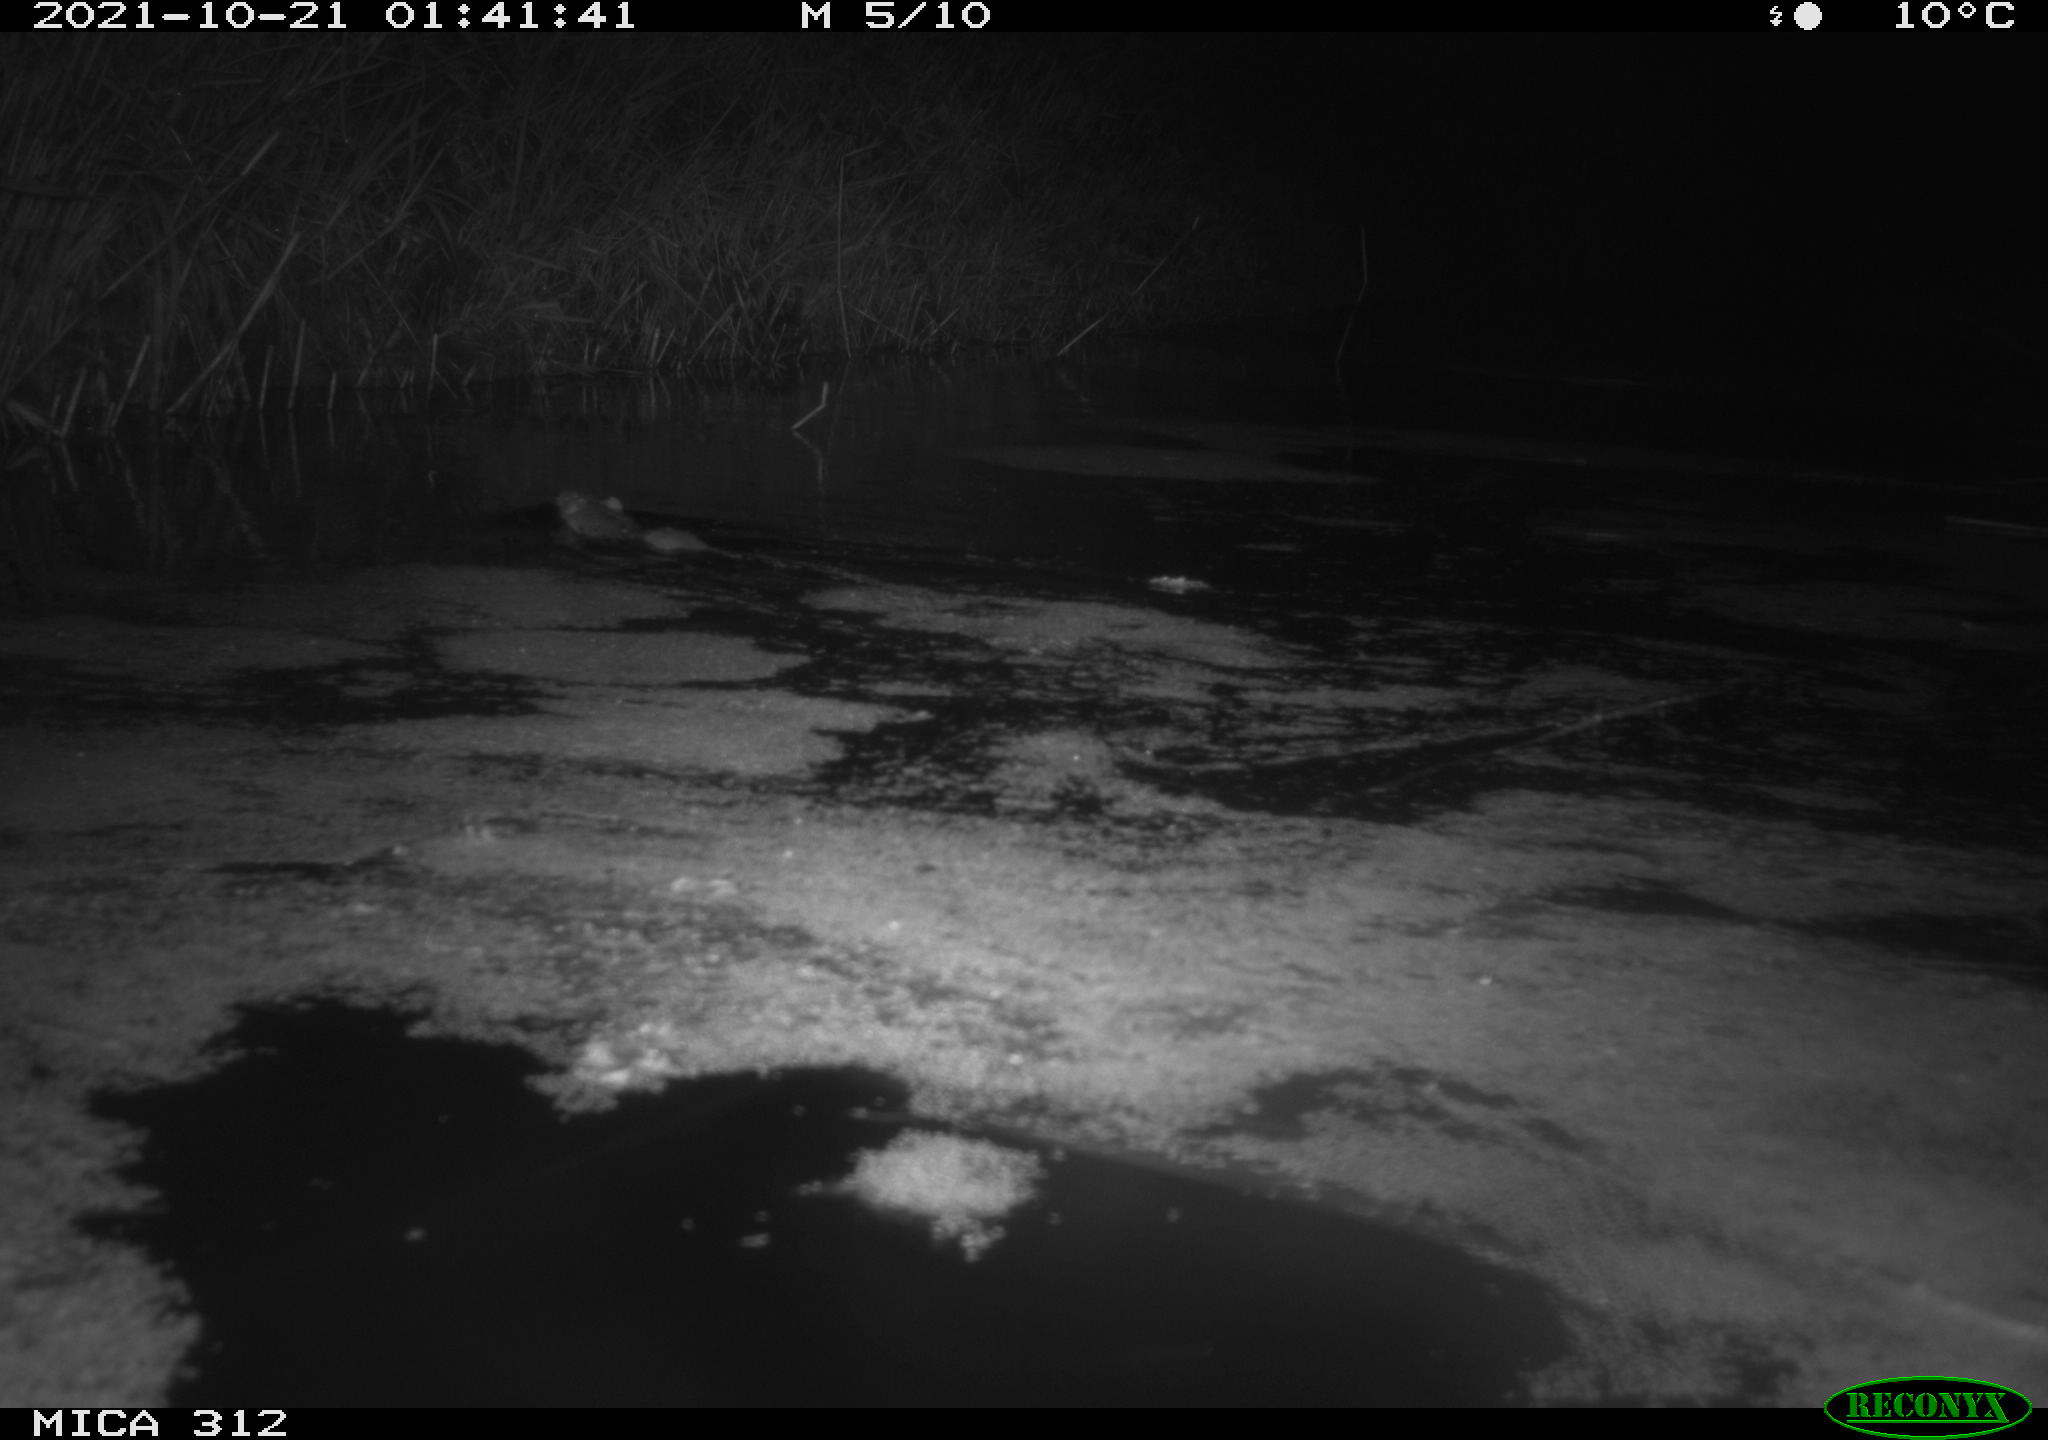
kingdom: Animalia
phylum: Chordata
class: Mammalia
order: Rodentia
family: Muridae
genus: Rattus
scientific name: Rattus norvegicus
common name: Brown rat
